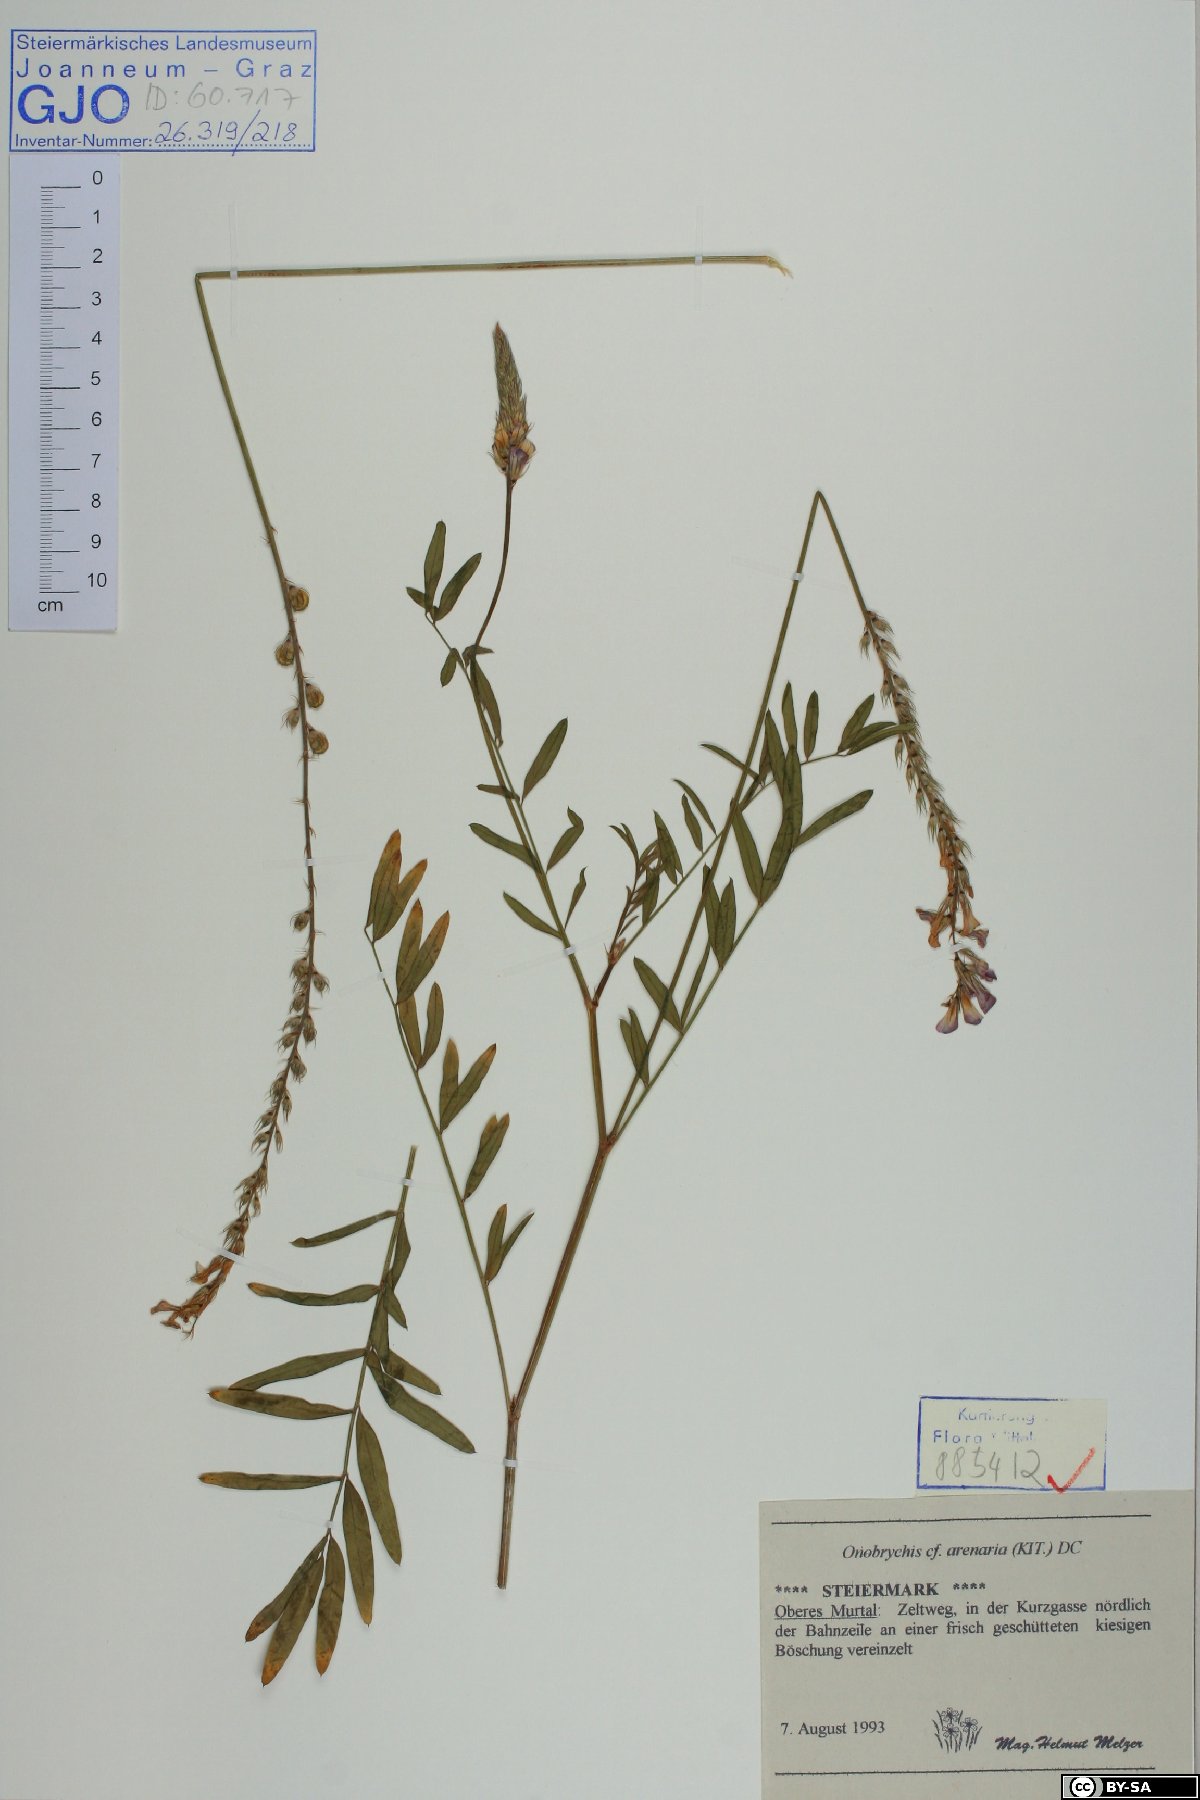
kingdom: Plantae
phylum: Tracheophyta
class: Magnoliopsida
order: Fabales
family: Fabaceae
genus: Onobrychis
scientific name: Onobrychis arenaria
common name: Sand esparcet
